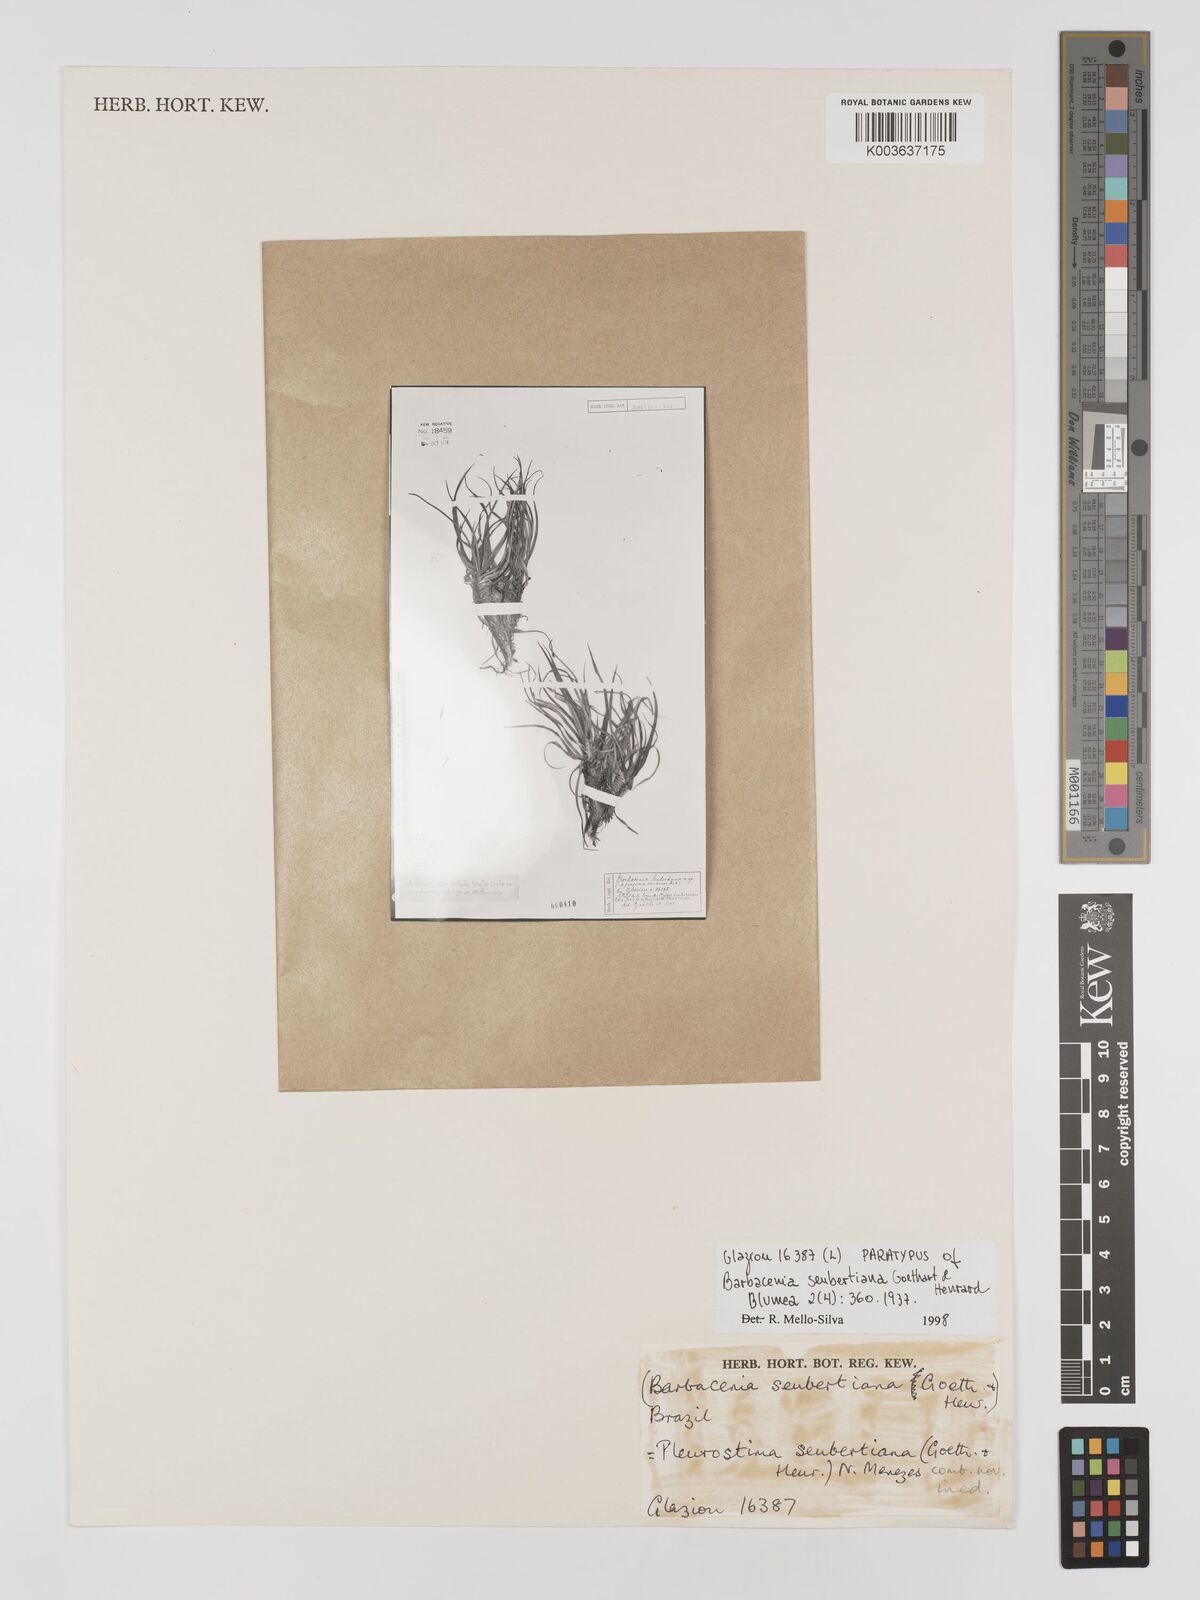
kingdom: Plantae
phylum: Tracheophyta
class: Liliopsida
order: Pandanales
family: Velloziaceae
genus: Barbacenia
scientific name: Barbacenia seubertiana
